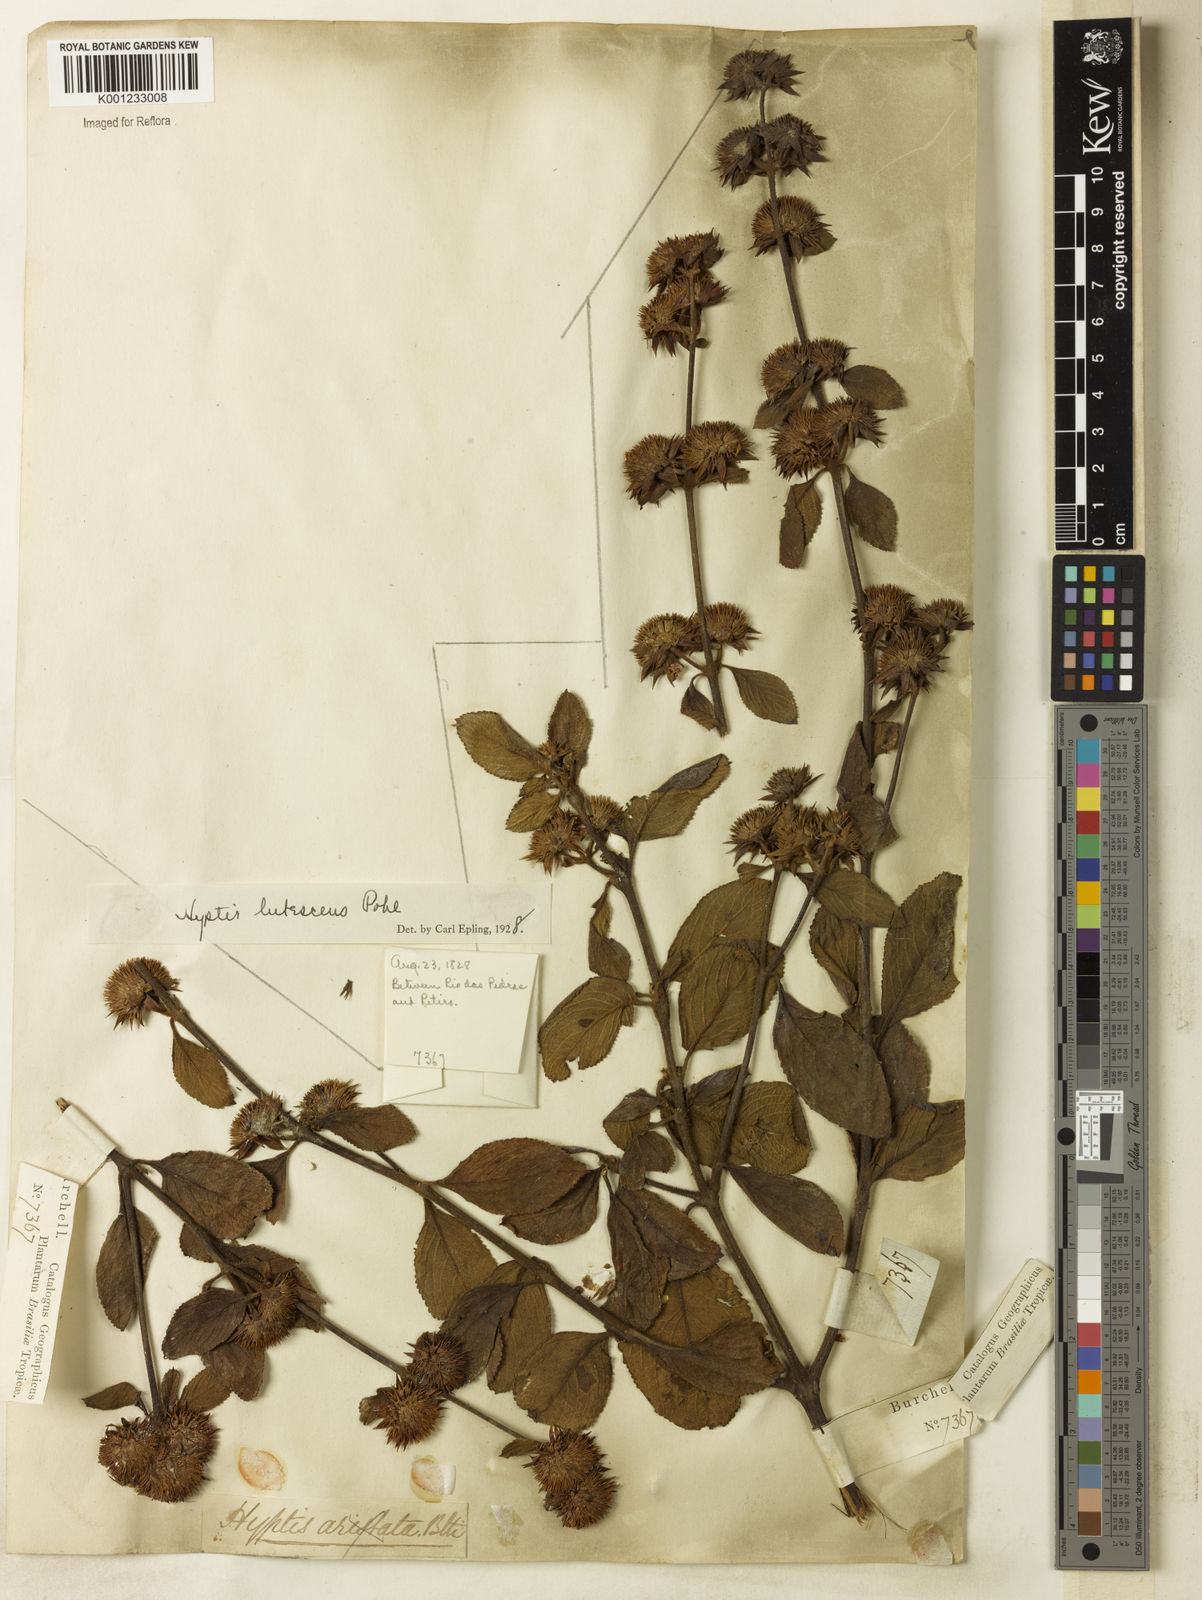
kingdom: Plantae
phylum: Tracheophyta
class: Magnoliopsida
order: Lamiales
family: Lamiaceae
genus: Hyptis
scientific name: Hyptis lutescens
